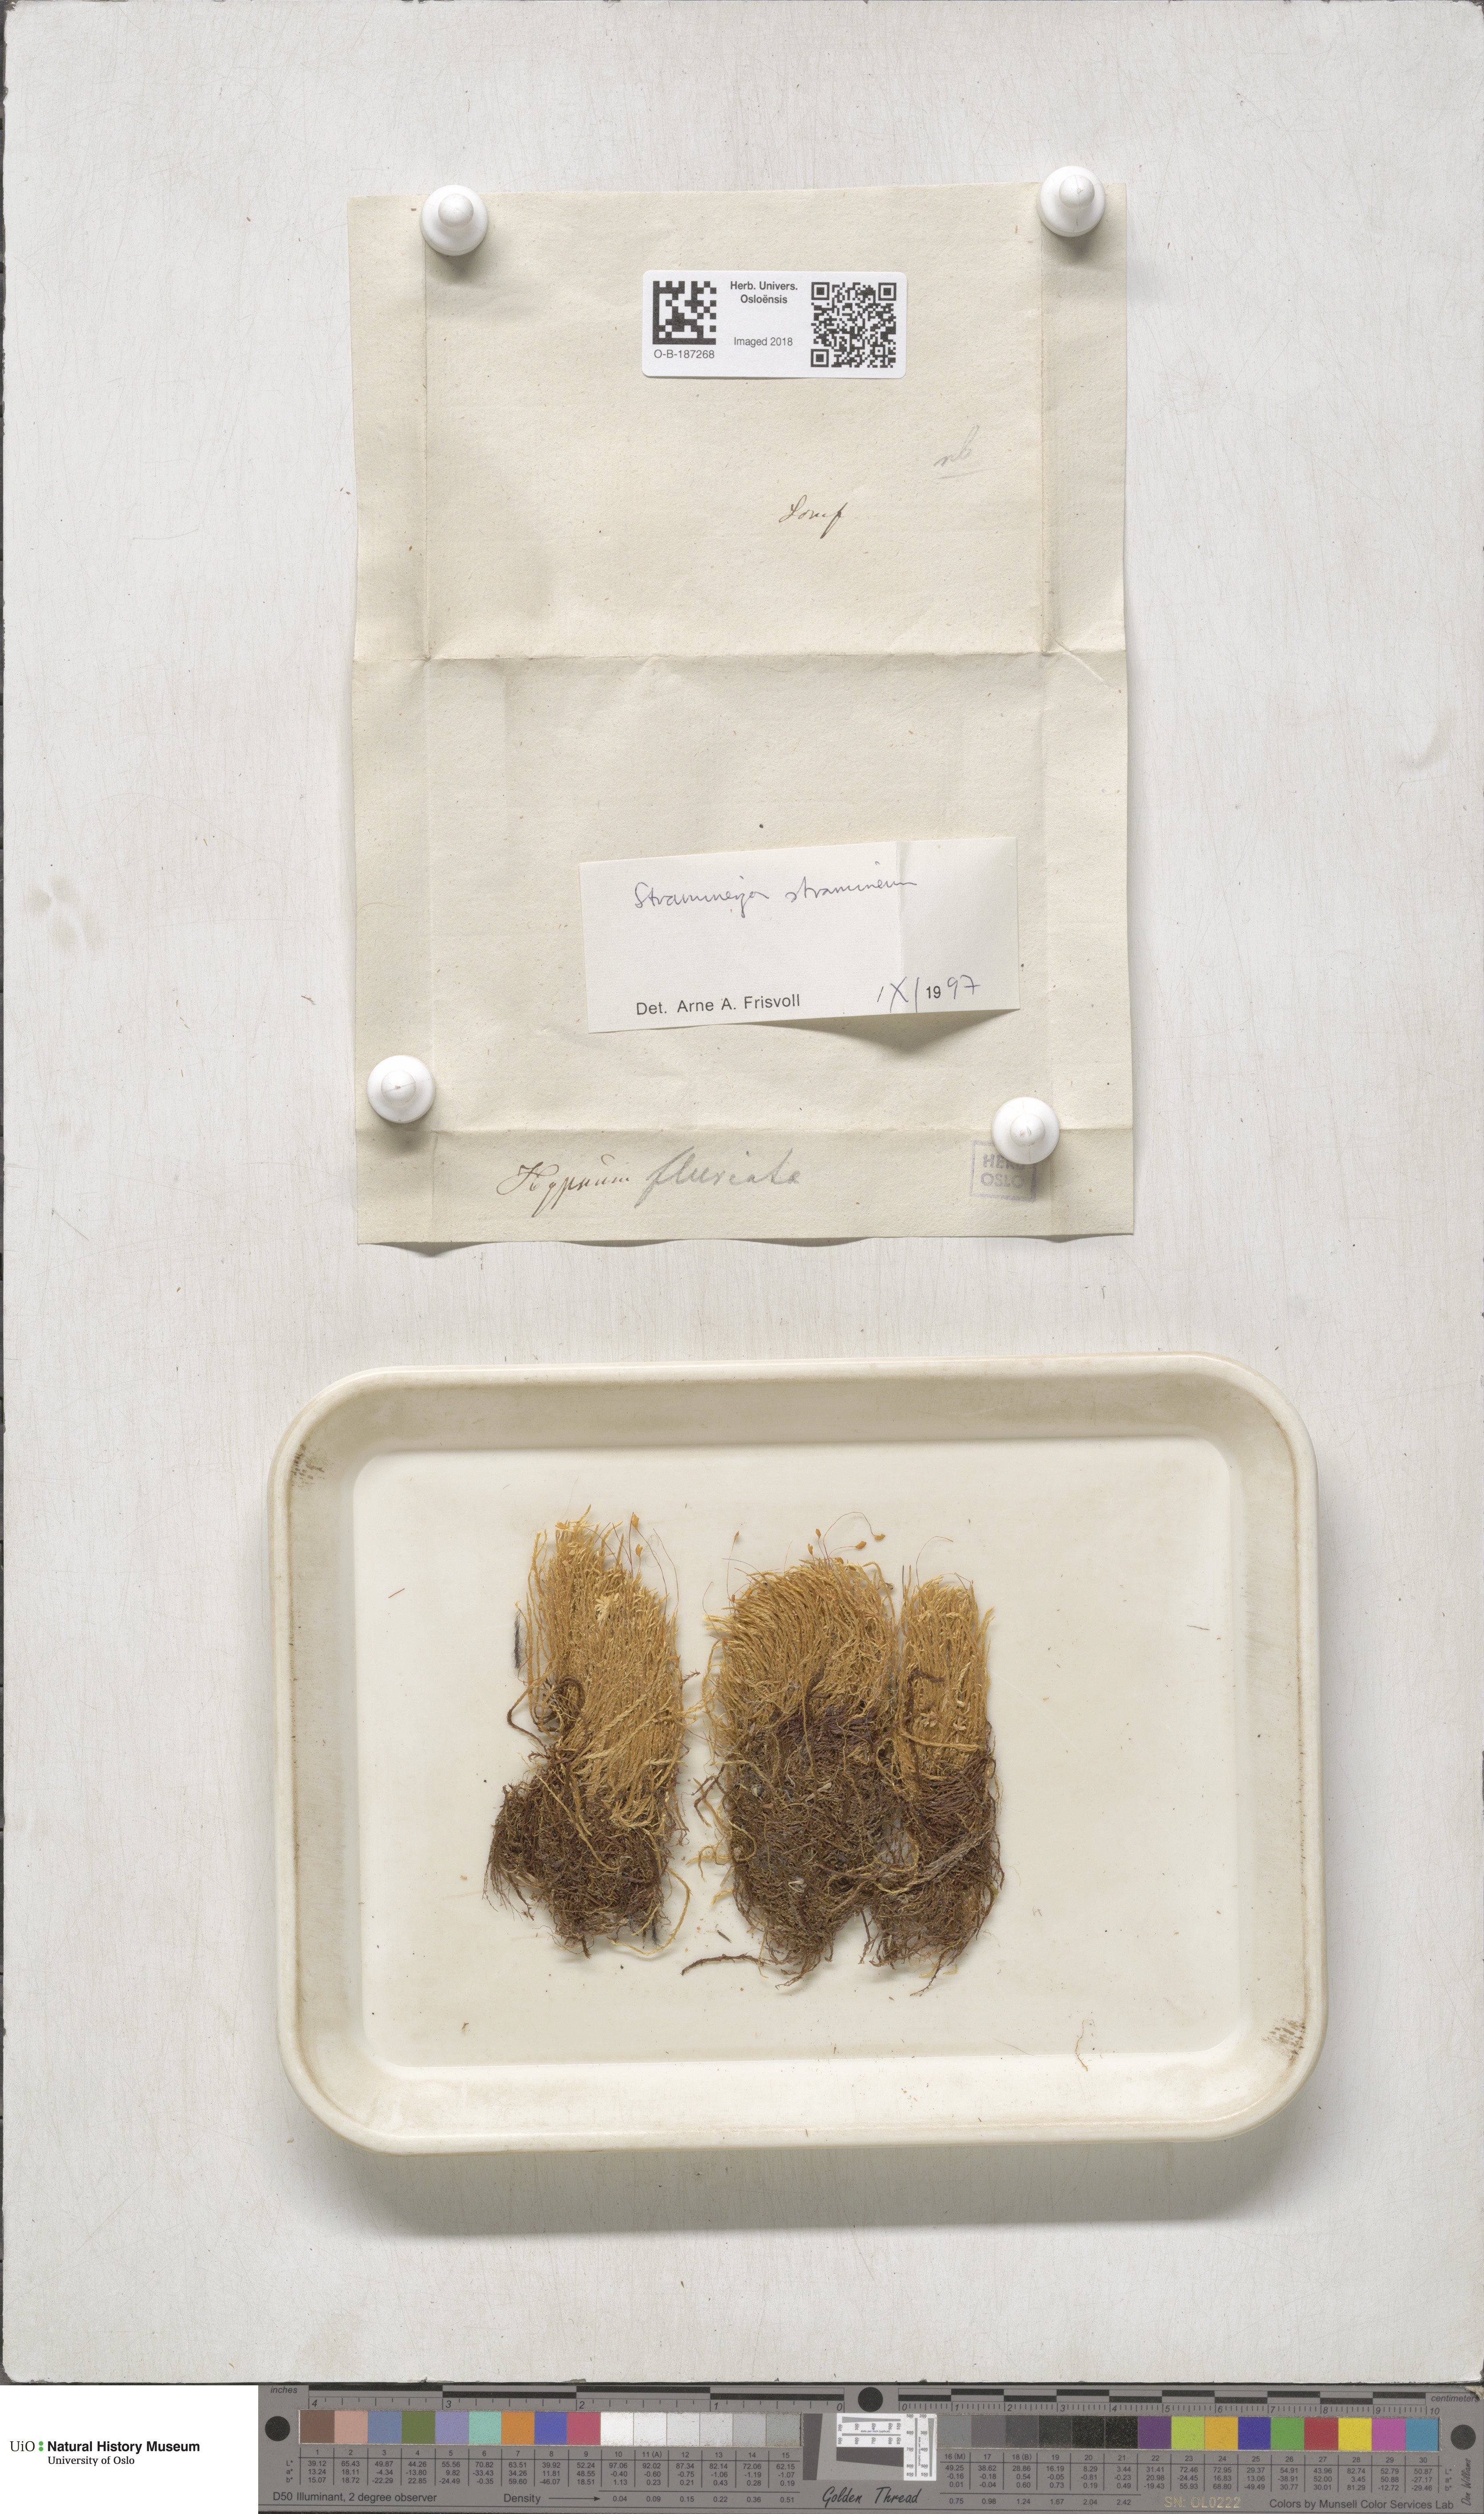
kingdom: Plantae
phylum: Bryophyta
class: Bryopsida
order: Hypnales
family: Calliergonaceae
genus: Straminergon
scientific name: Straminergon stramineum
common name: Straw moss
